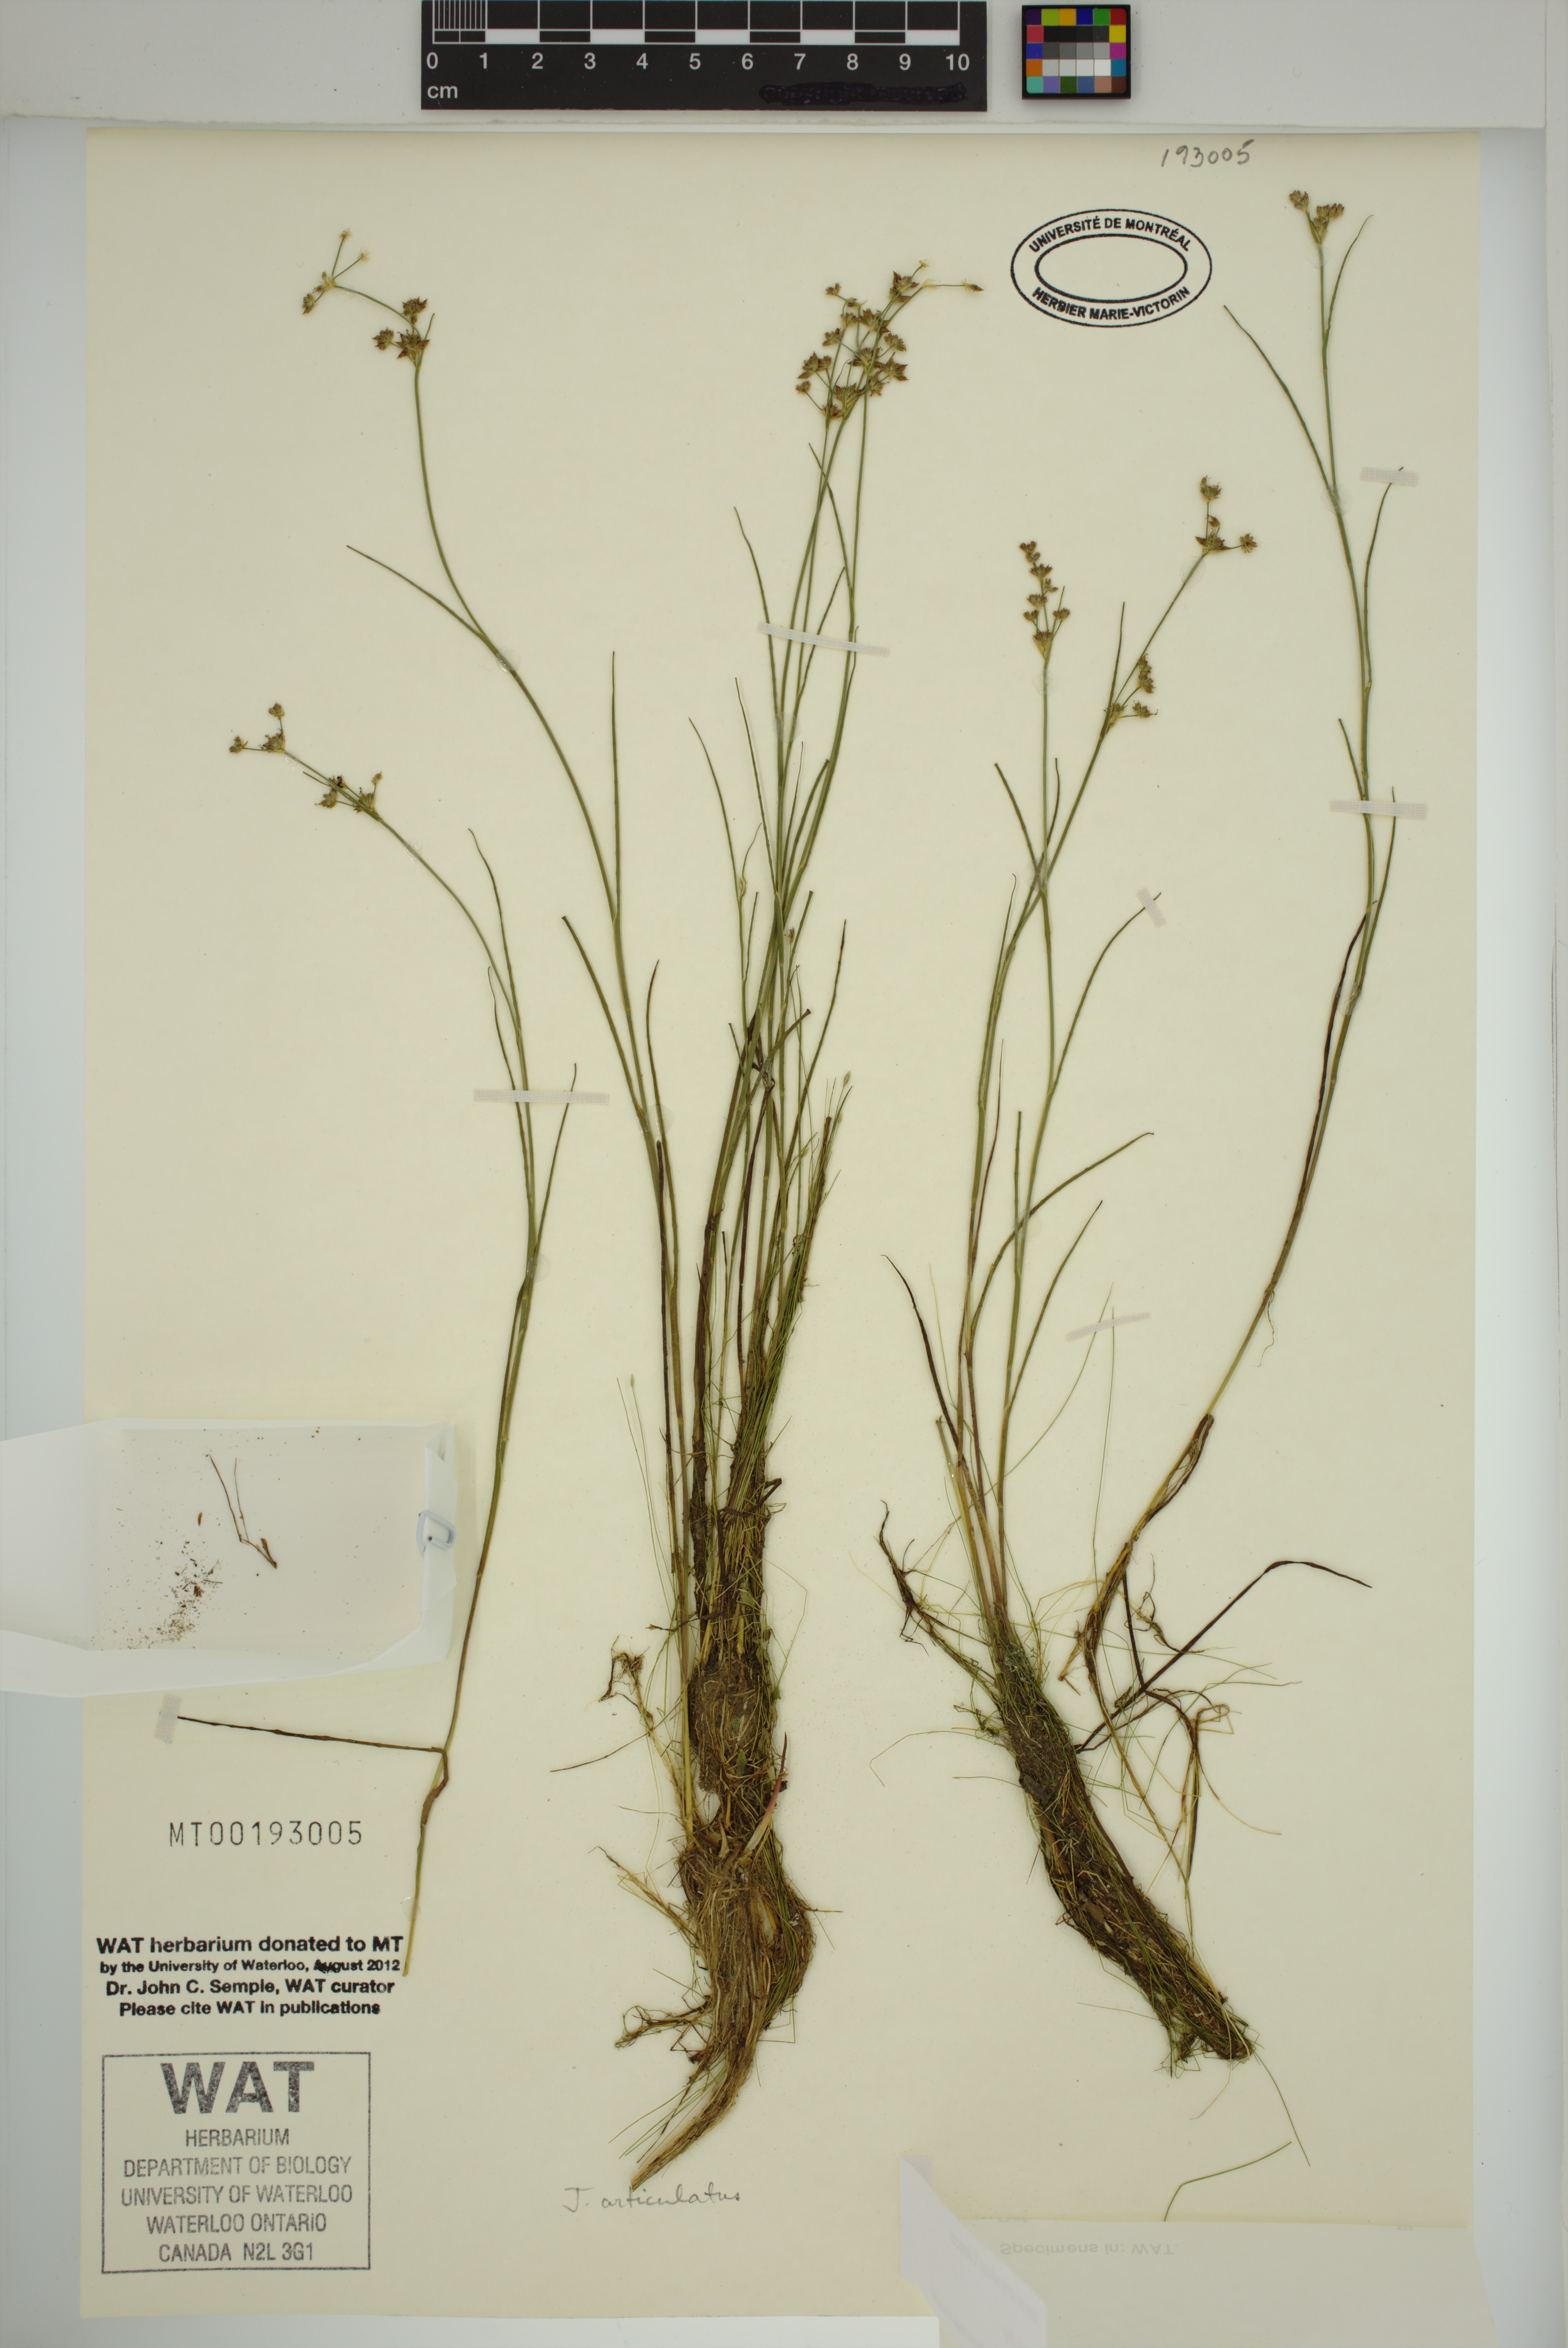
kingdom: Plantae
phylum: Tracheophyta
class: Liliopsida
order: Poales
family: Juncaceae
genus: Juncus
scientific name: Juncus articulatus
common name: Jointed rush
